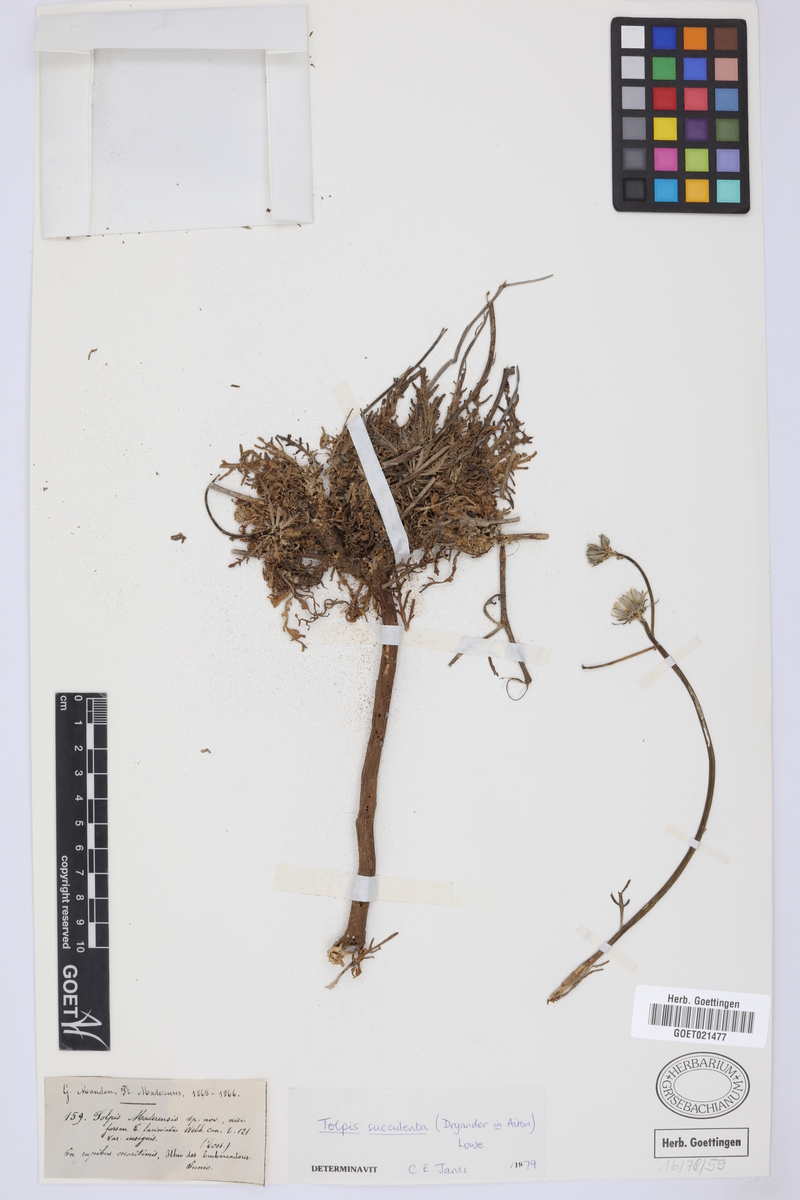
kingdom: Plantae
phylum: Tracheophyta
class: Magnoliopsida
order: Asterales
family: Asteraceae
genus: Tolpis
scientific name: Tolpis succulenta
